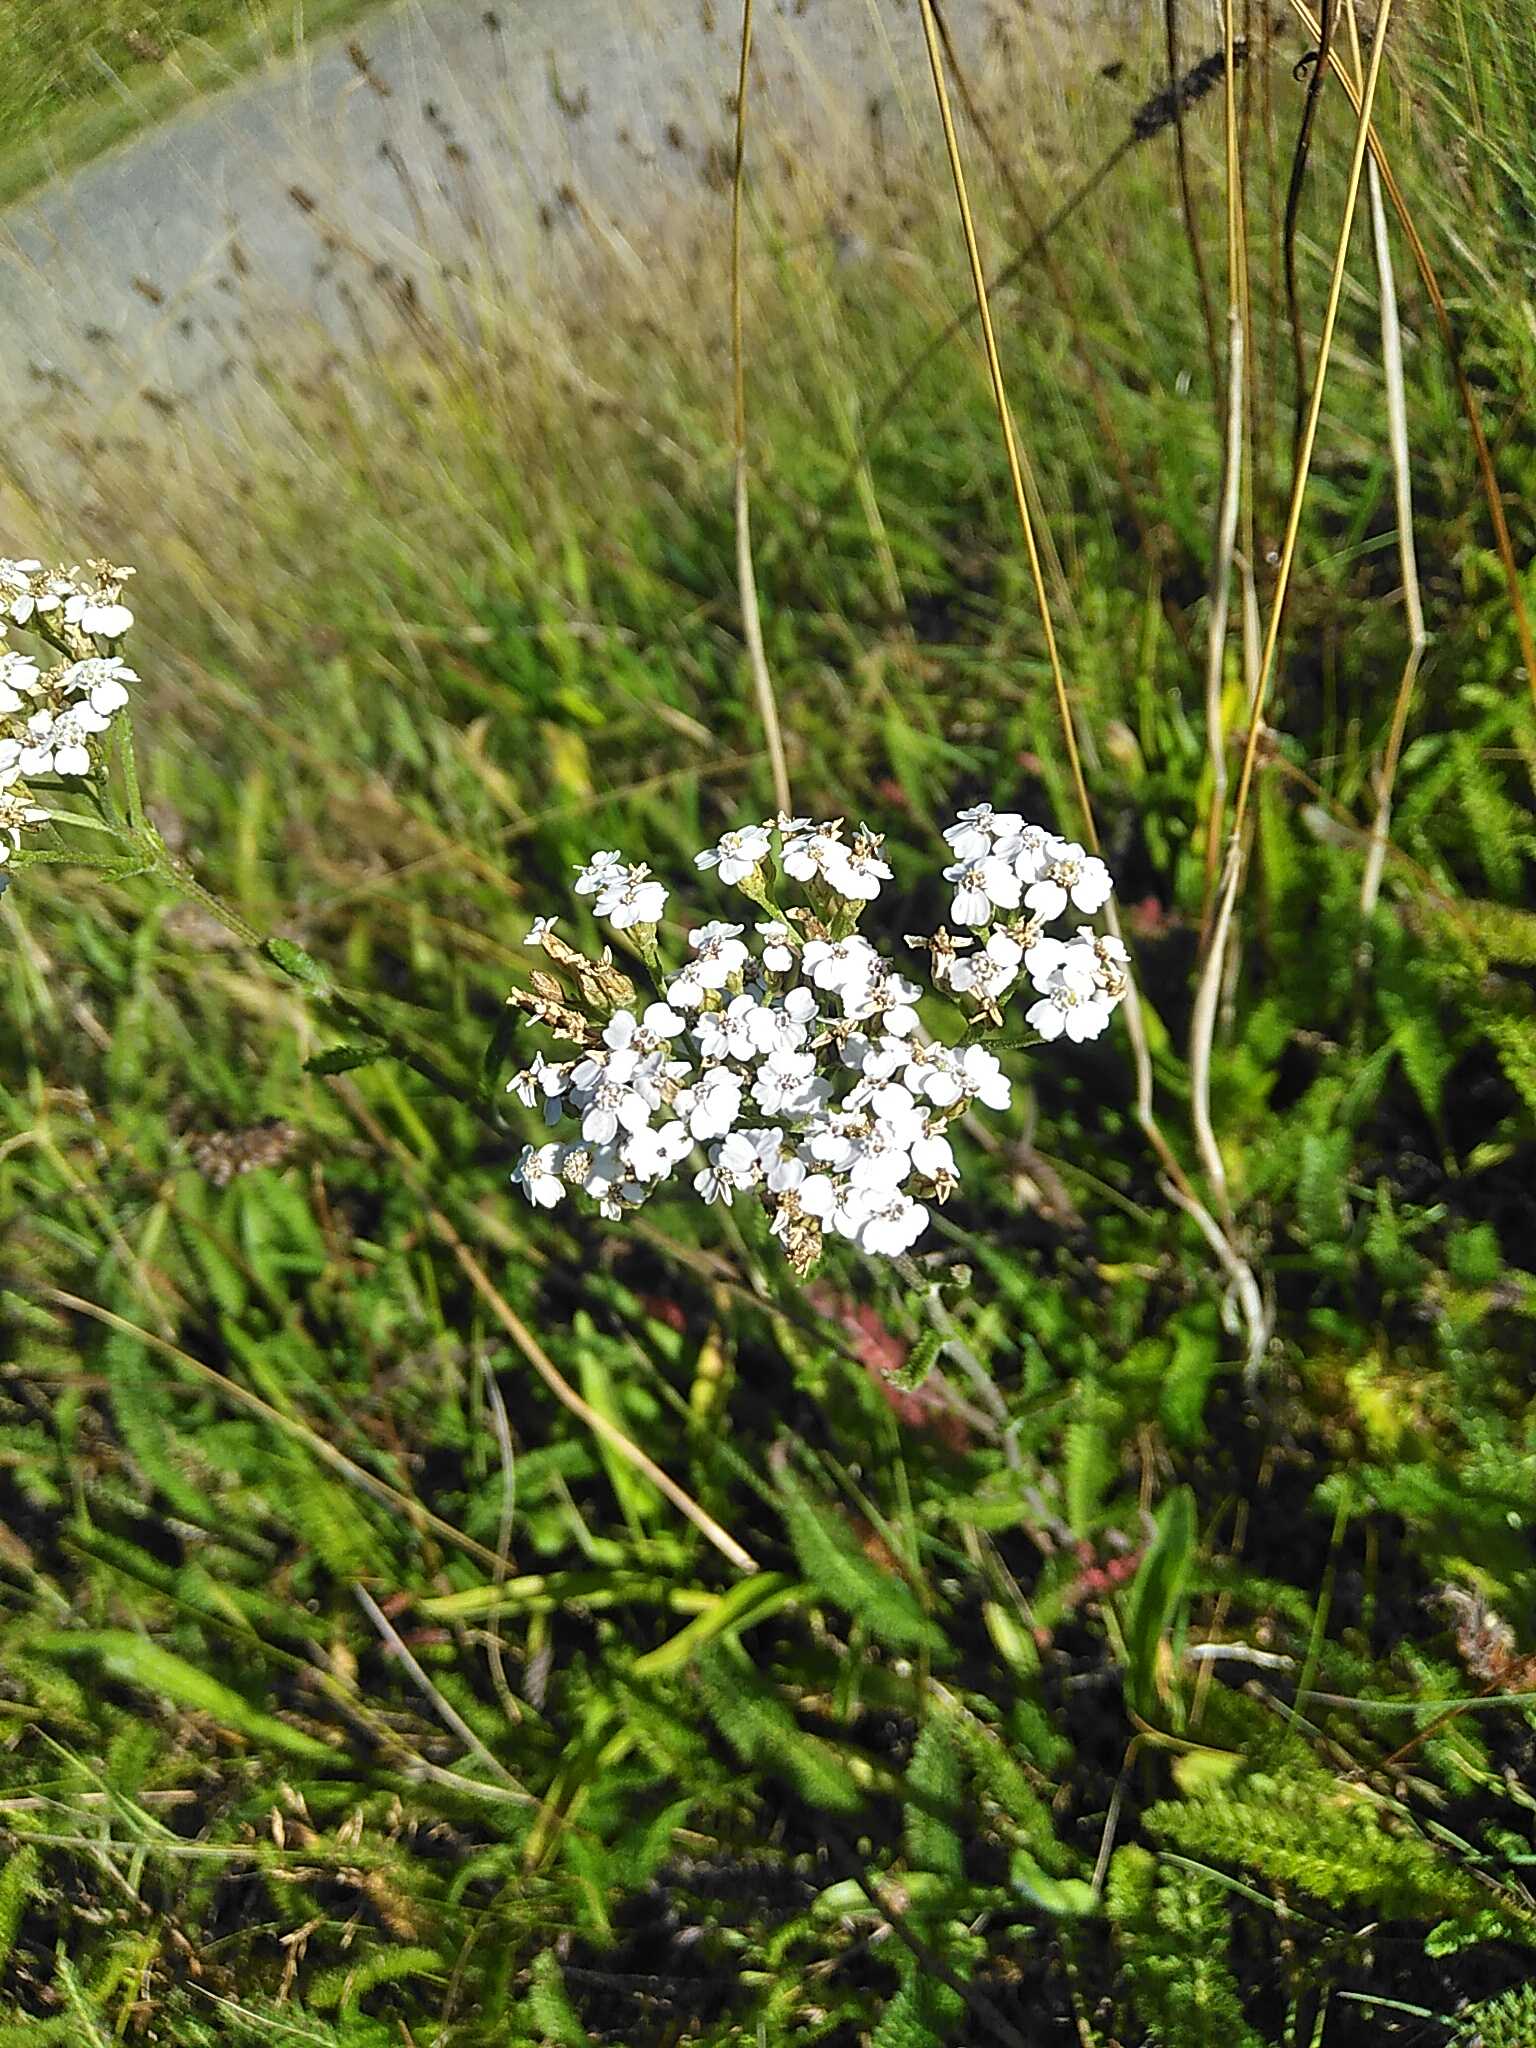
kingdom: Plantae
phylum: Tracheophyta
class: Magnoliopsida
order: Asterales
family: Asteraceae
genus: Achillea
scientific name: Achillea millefolium
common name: Almindelig røllike
